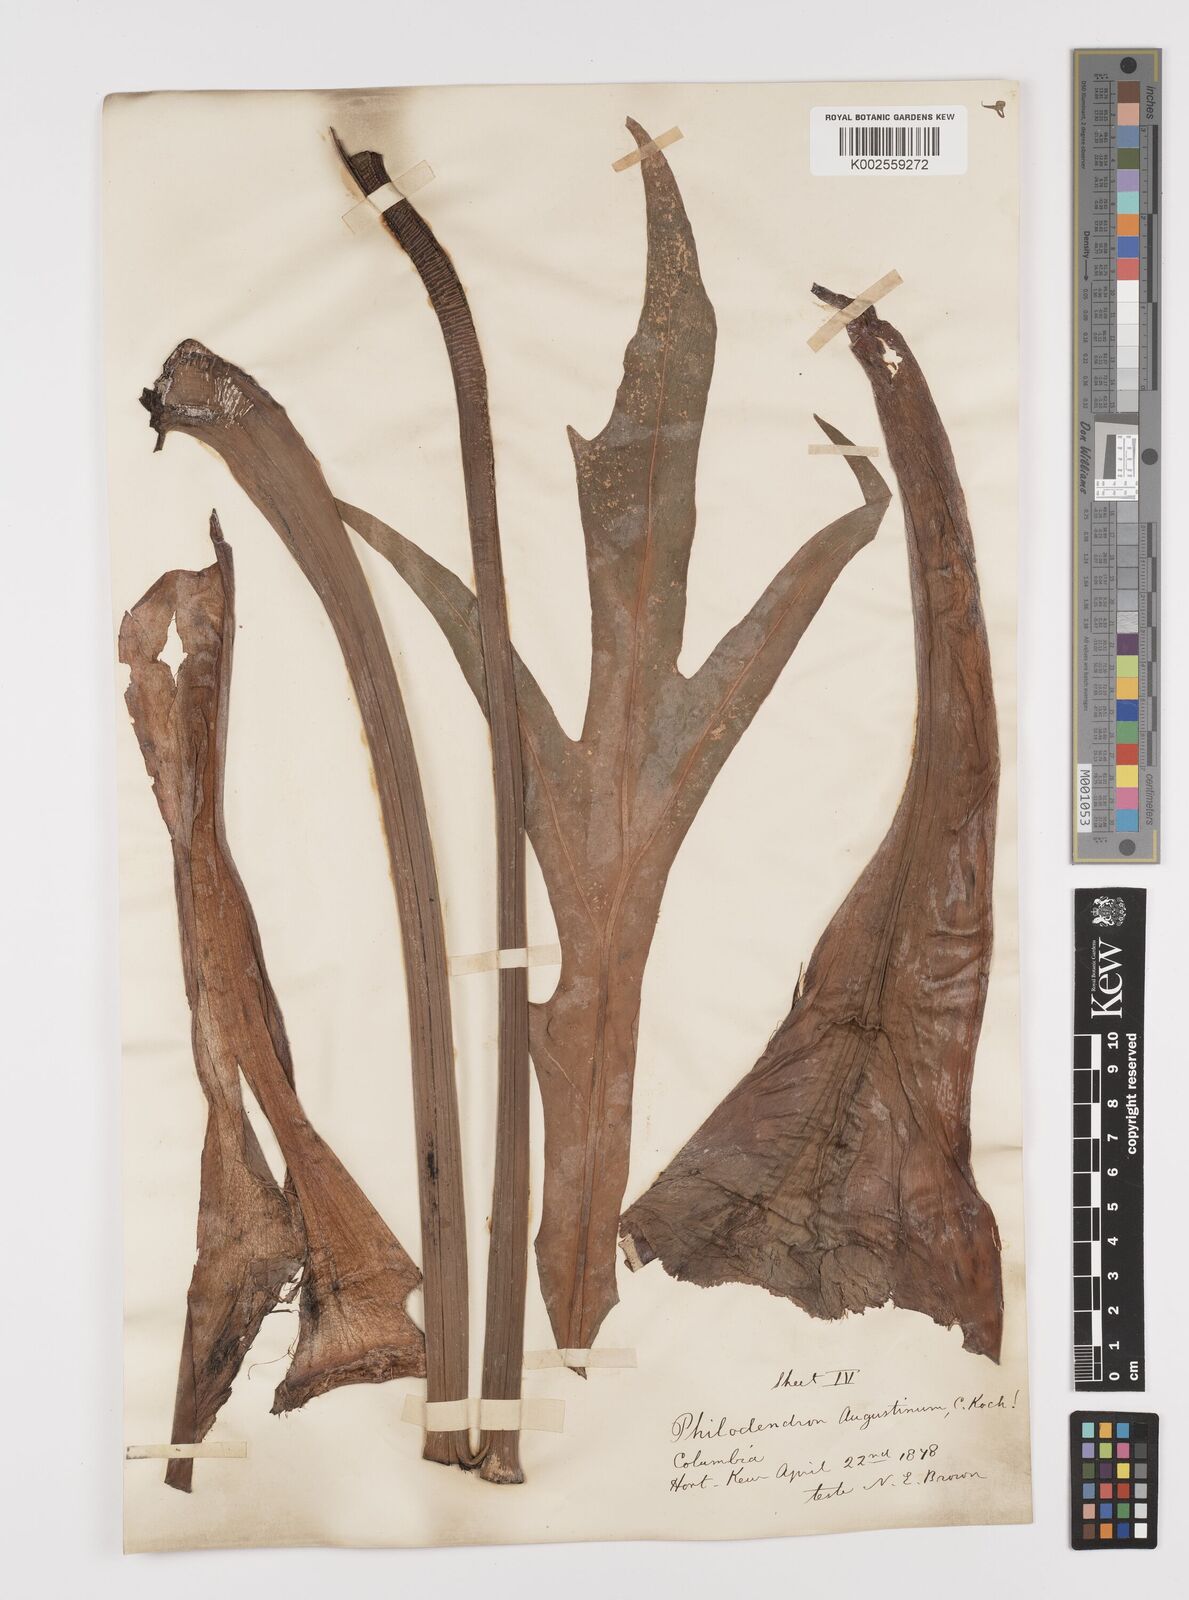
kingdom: Plantae
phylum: Tracheophyta
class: Liliopsida
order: Alismatales
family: Araceae
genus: Philodendron
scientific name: Philodendron radiatum
